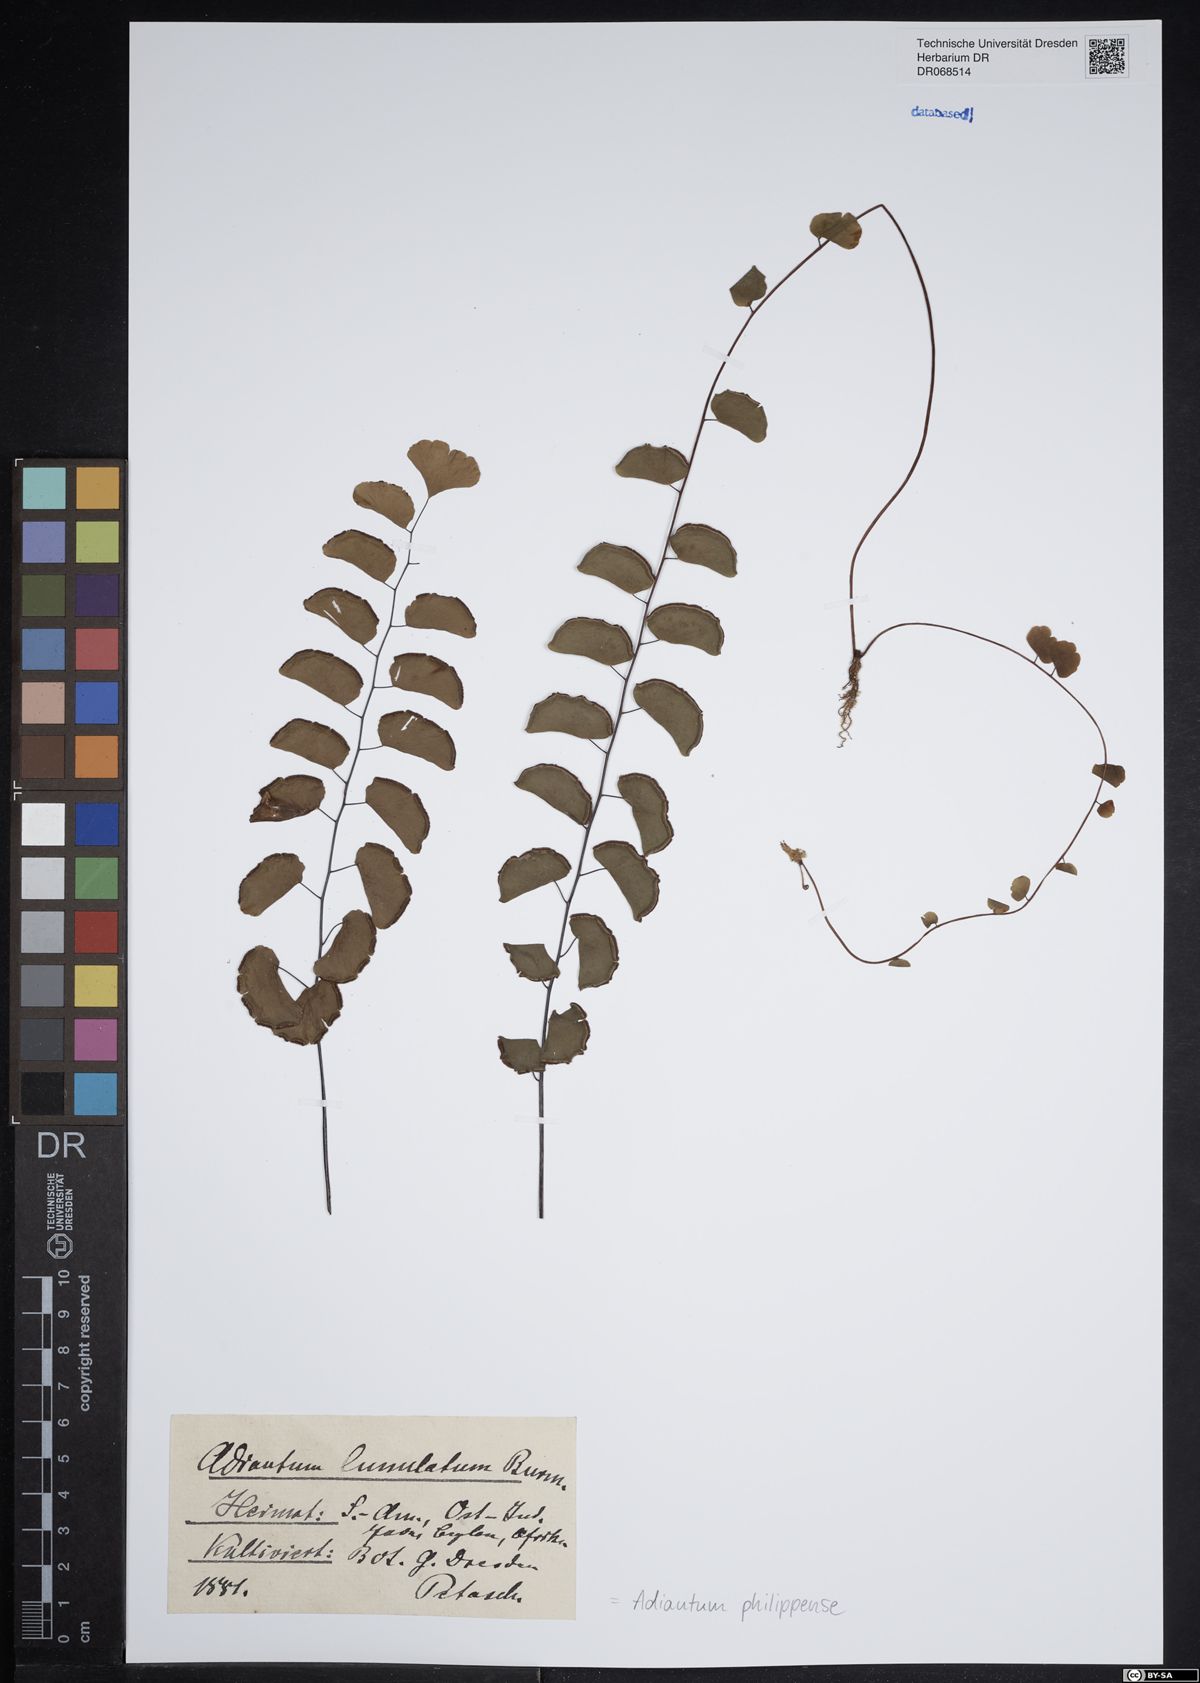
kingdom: Plantae
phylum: Tracheophyta
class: Polypodiopsida
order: Polypodiales
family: Pteridaceae
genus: Adiantum
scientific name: Adiantum philippense
